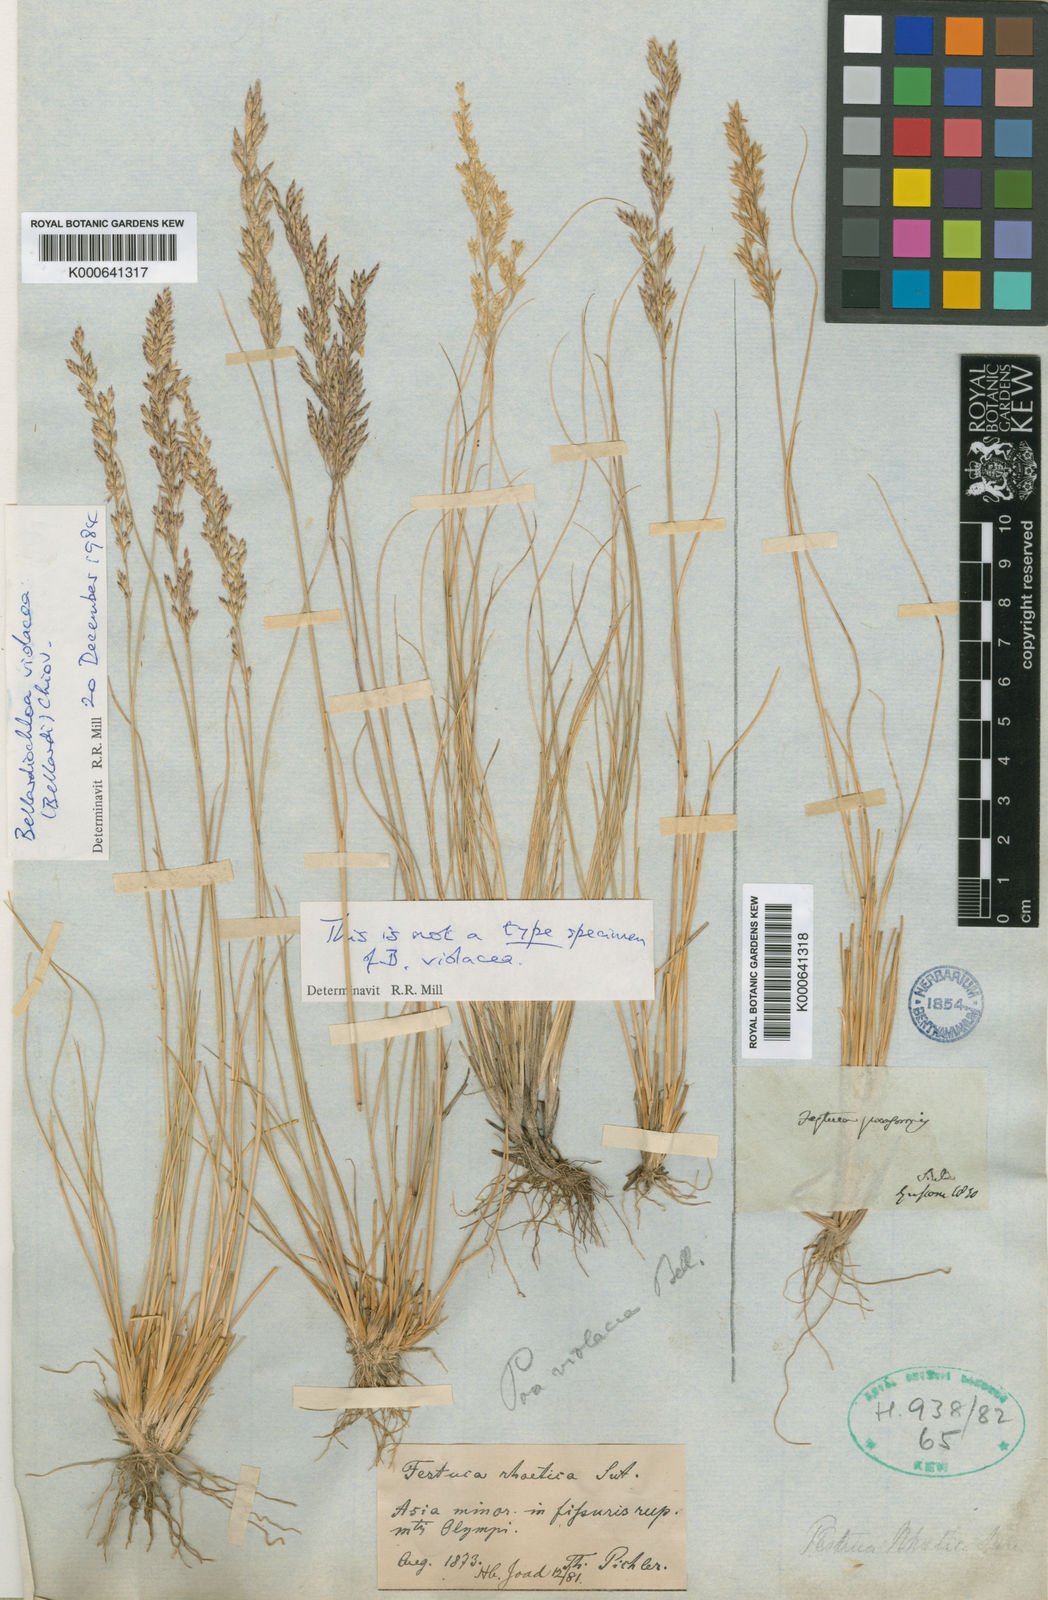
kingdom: Plantae
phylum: Tracheophyta
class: Liliopsida
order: Poales
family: Poaceae
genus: Bellardiochloa
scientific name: Bellardiochloa variegata
